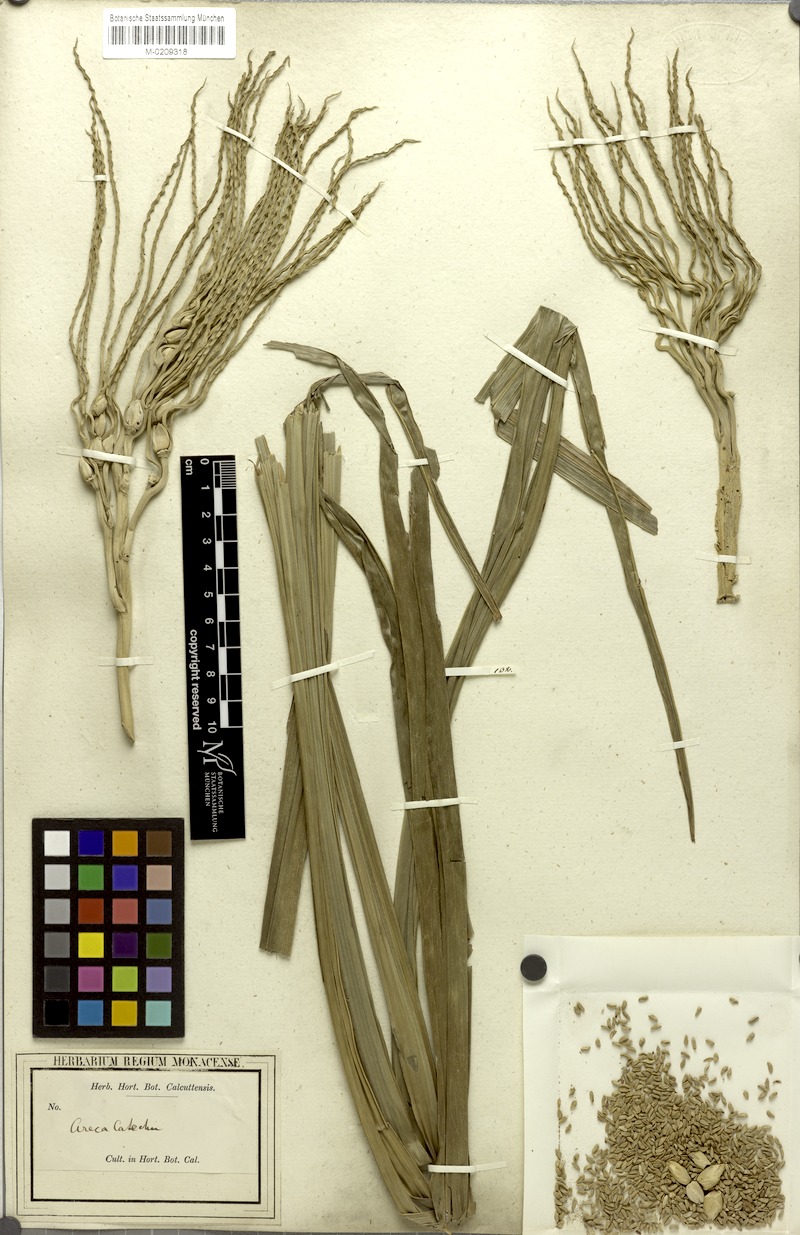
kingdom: Plantae
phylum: Tracheophyta
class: Liliopsida
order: Arecales
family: Arecaceae
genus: Areca
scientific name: Areca catechu
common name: Indian-nut
